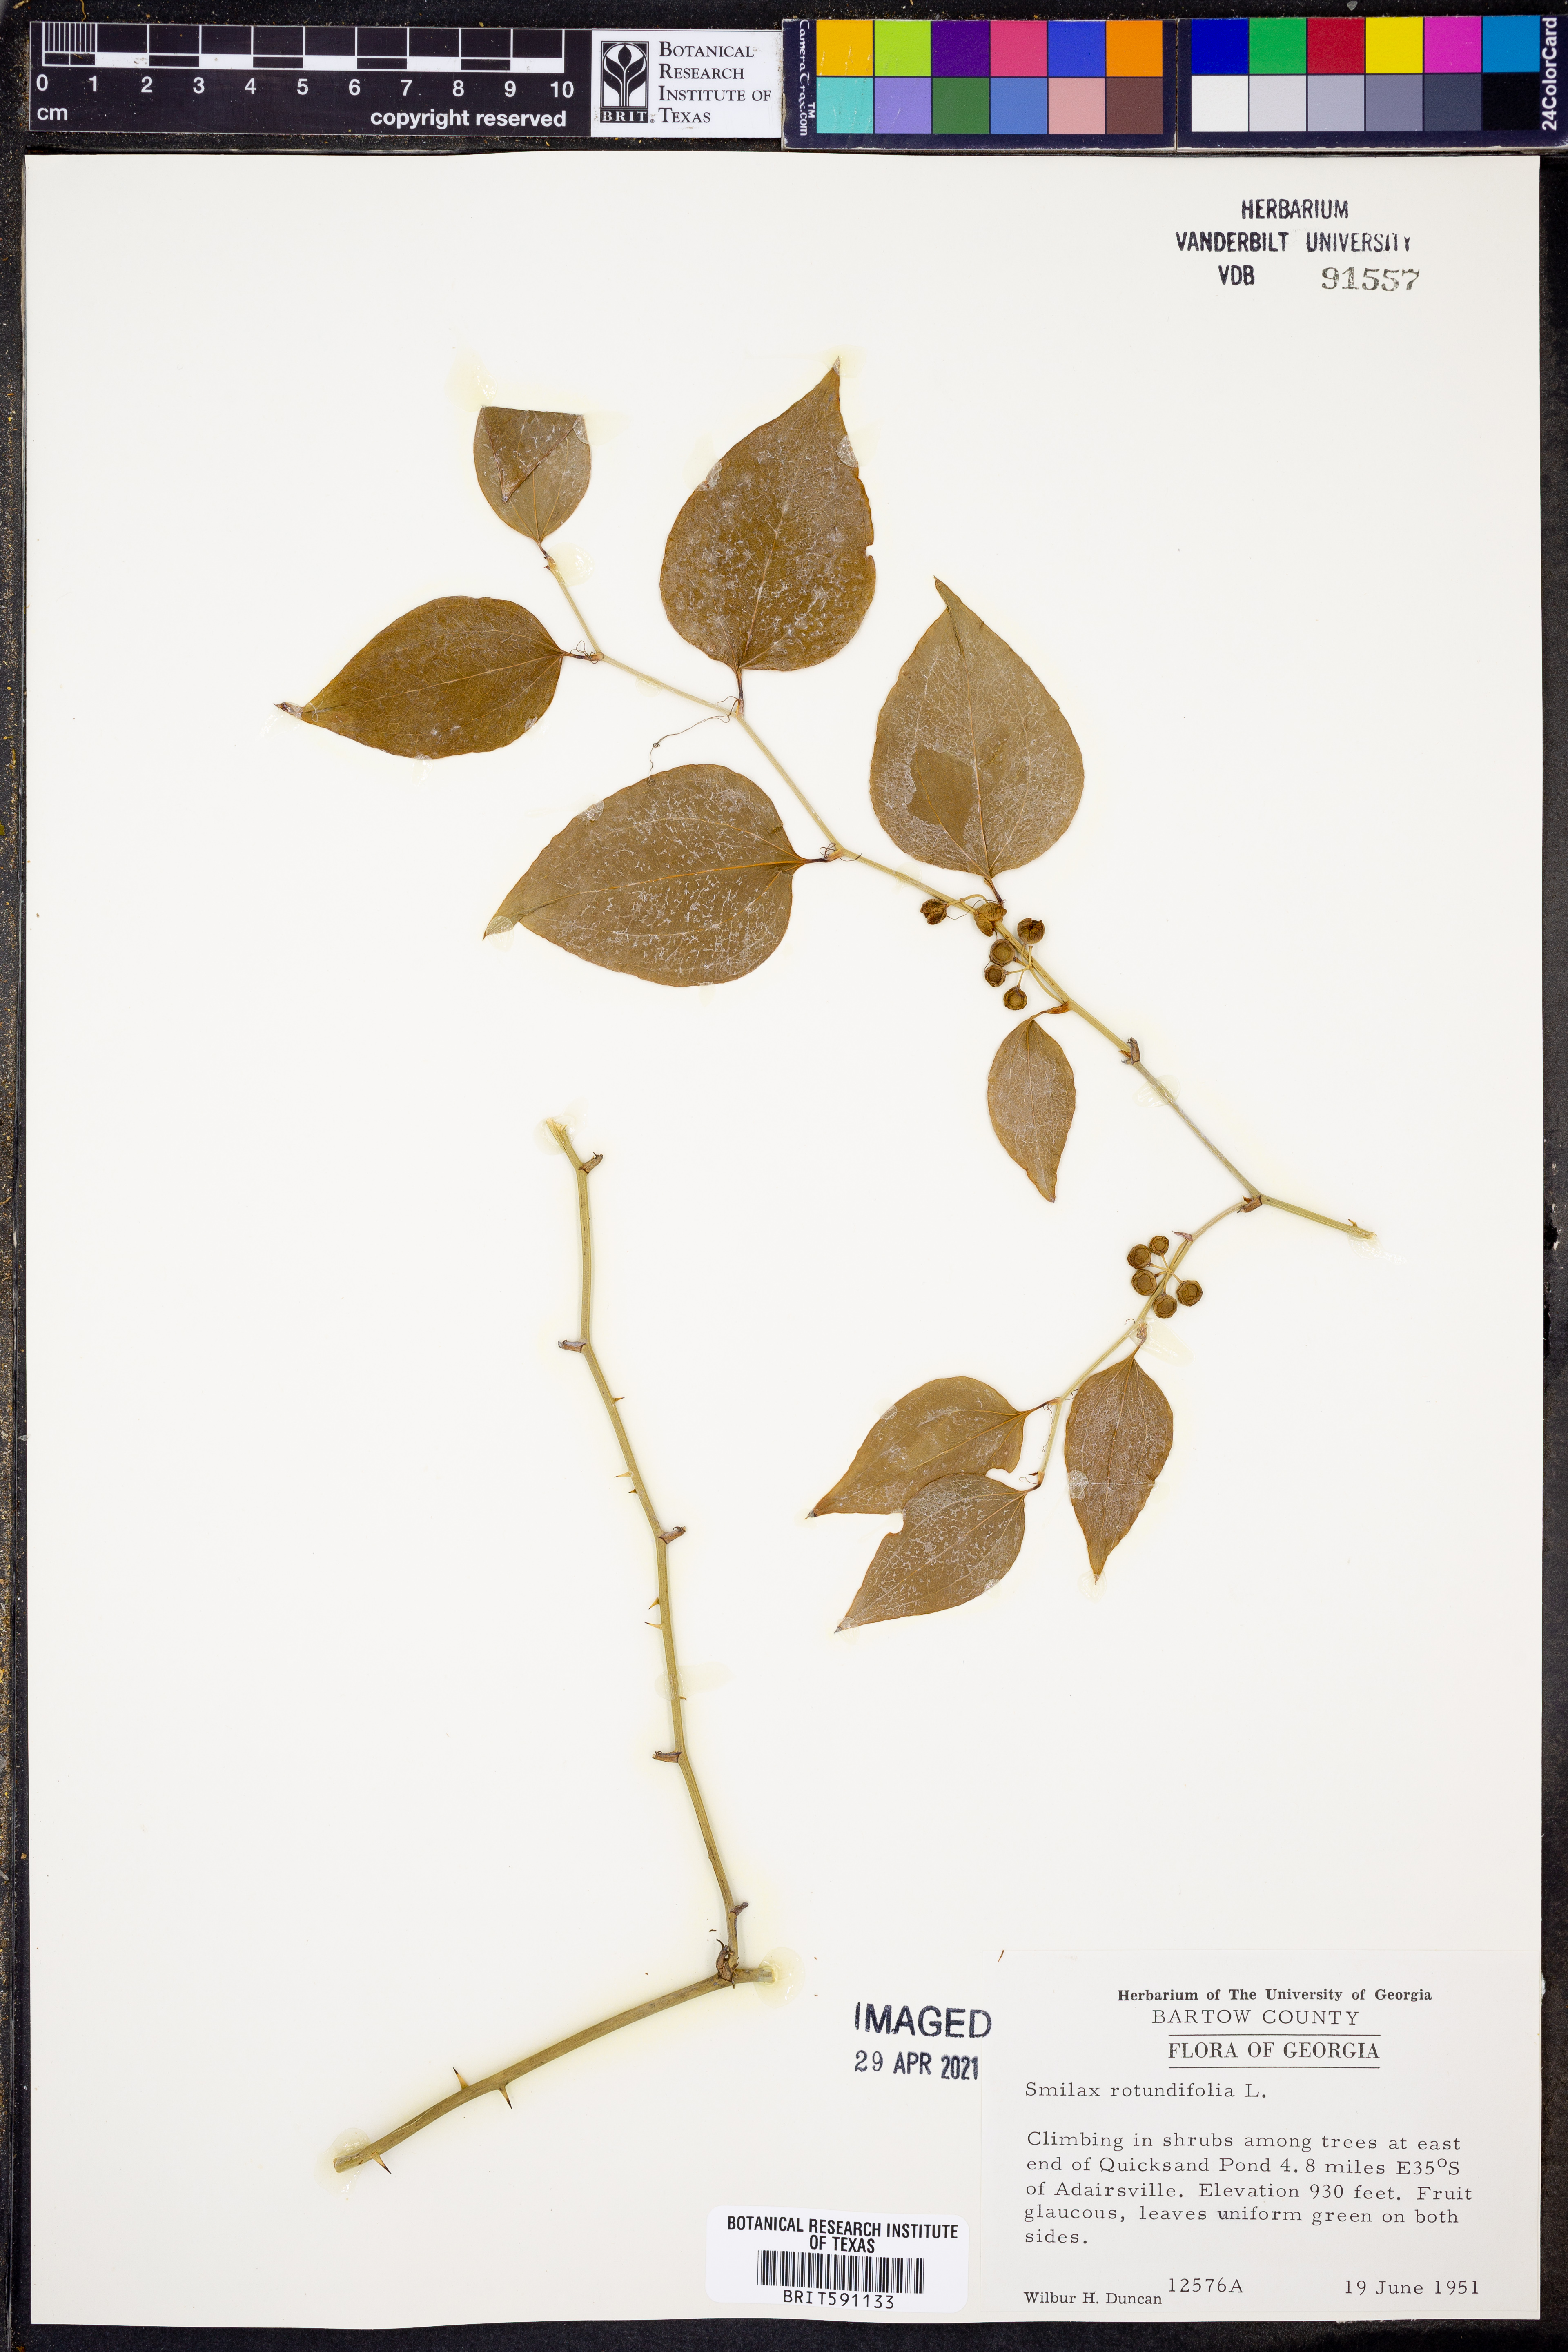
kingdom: Plantae
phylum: Tracheophyta
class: Liliopsida
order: Liliales
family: Smilacaceae
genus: Smilax
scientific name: Smilax rotundifolia
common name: Bullbriar
